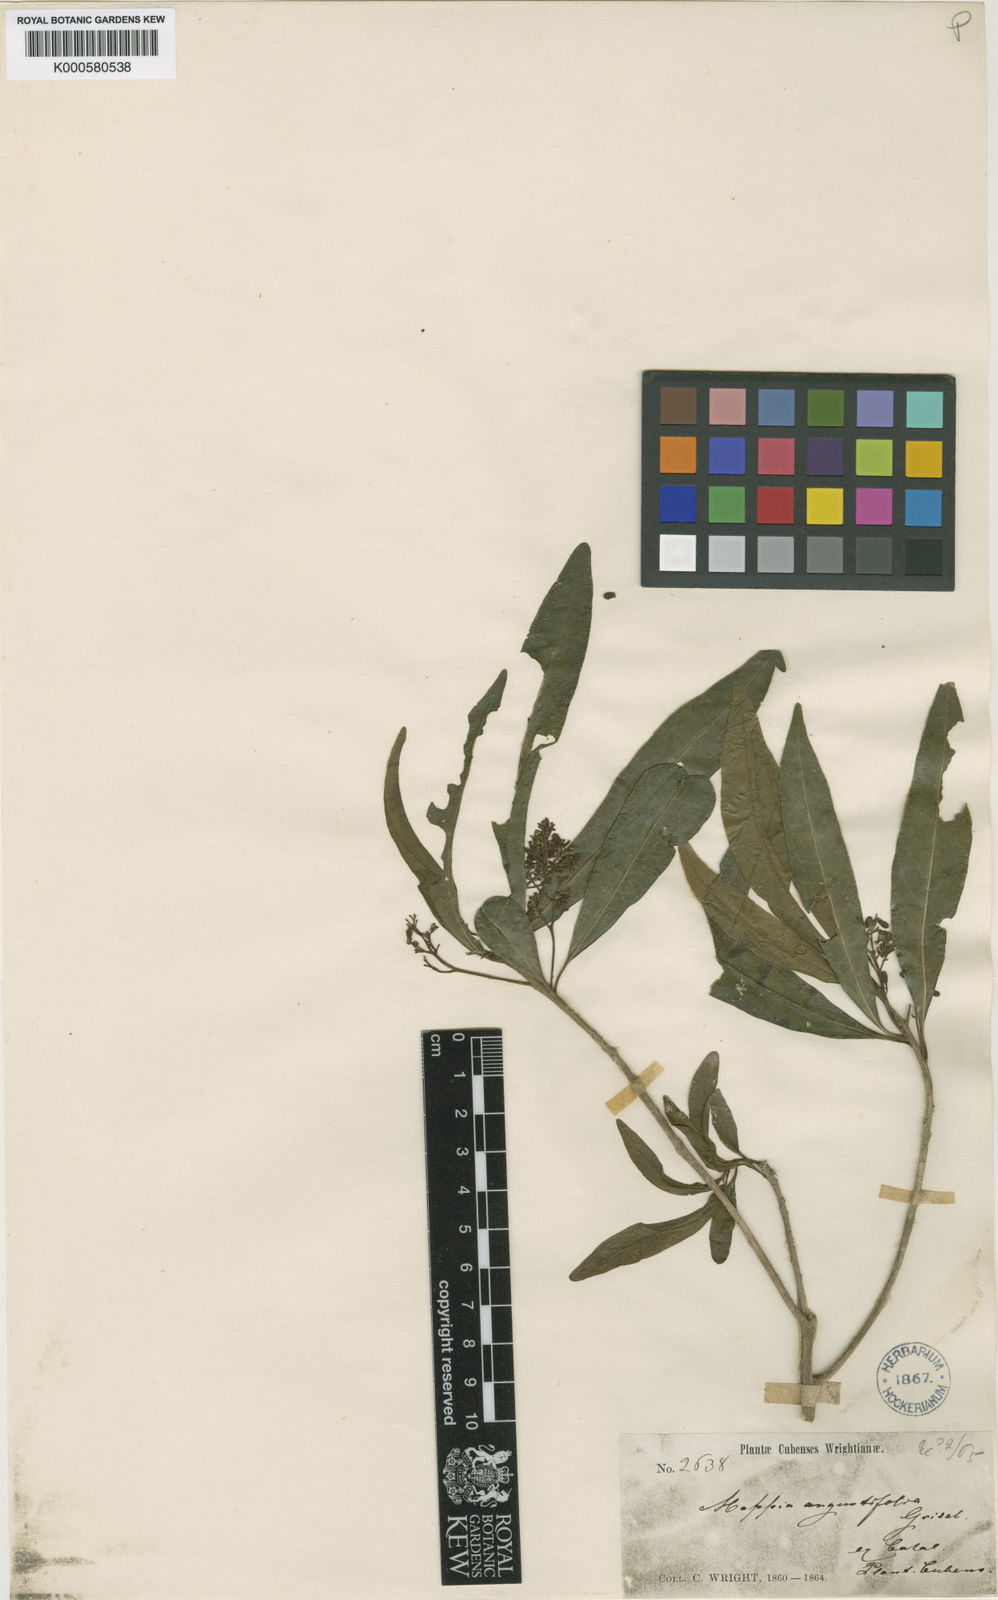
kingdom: Plantae
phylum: Tracheophyta
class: Magnoliopsida
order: Icacinales
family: Icacinaceae
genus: Mappia
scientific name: Mappia angustifolia
